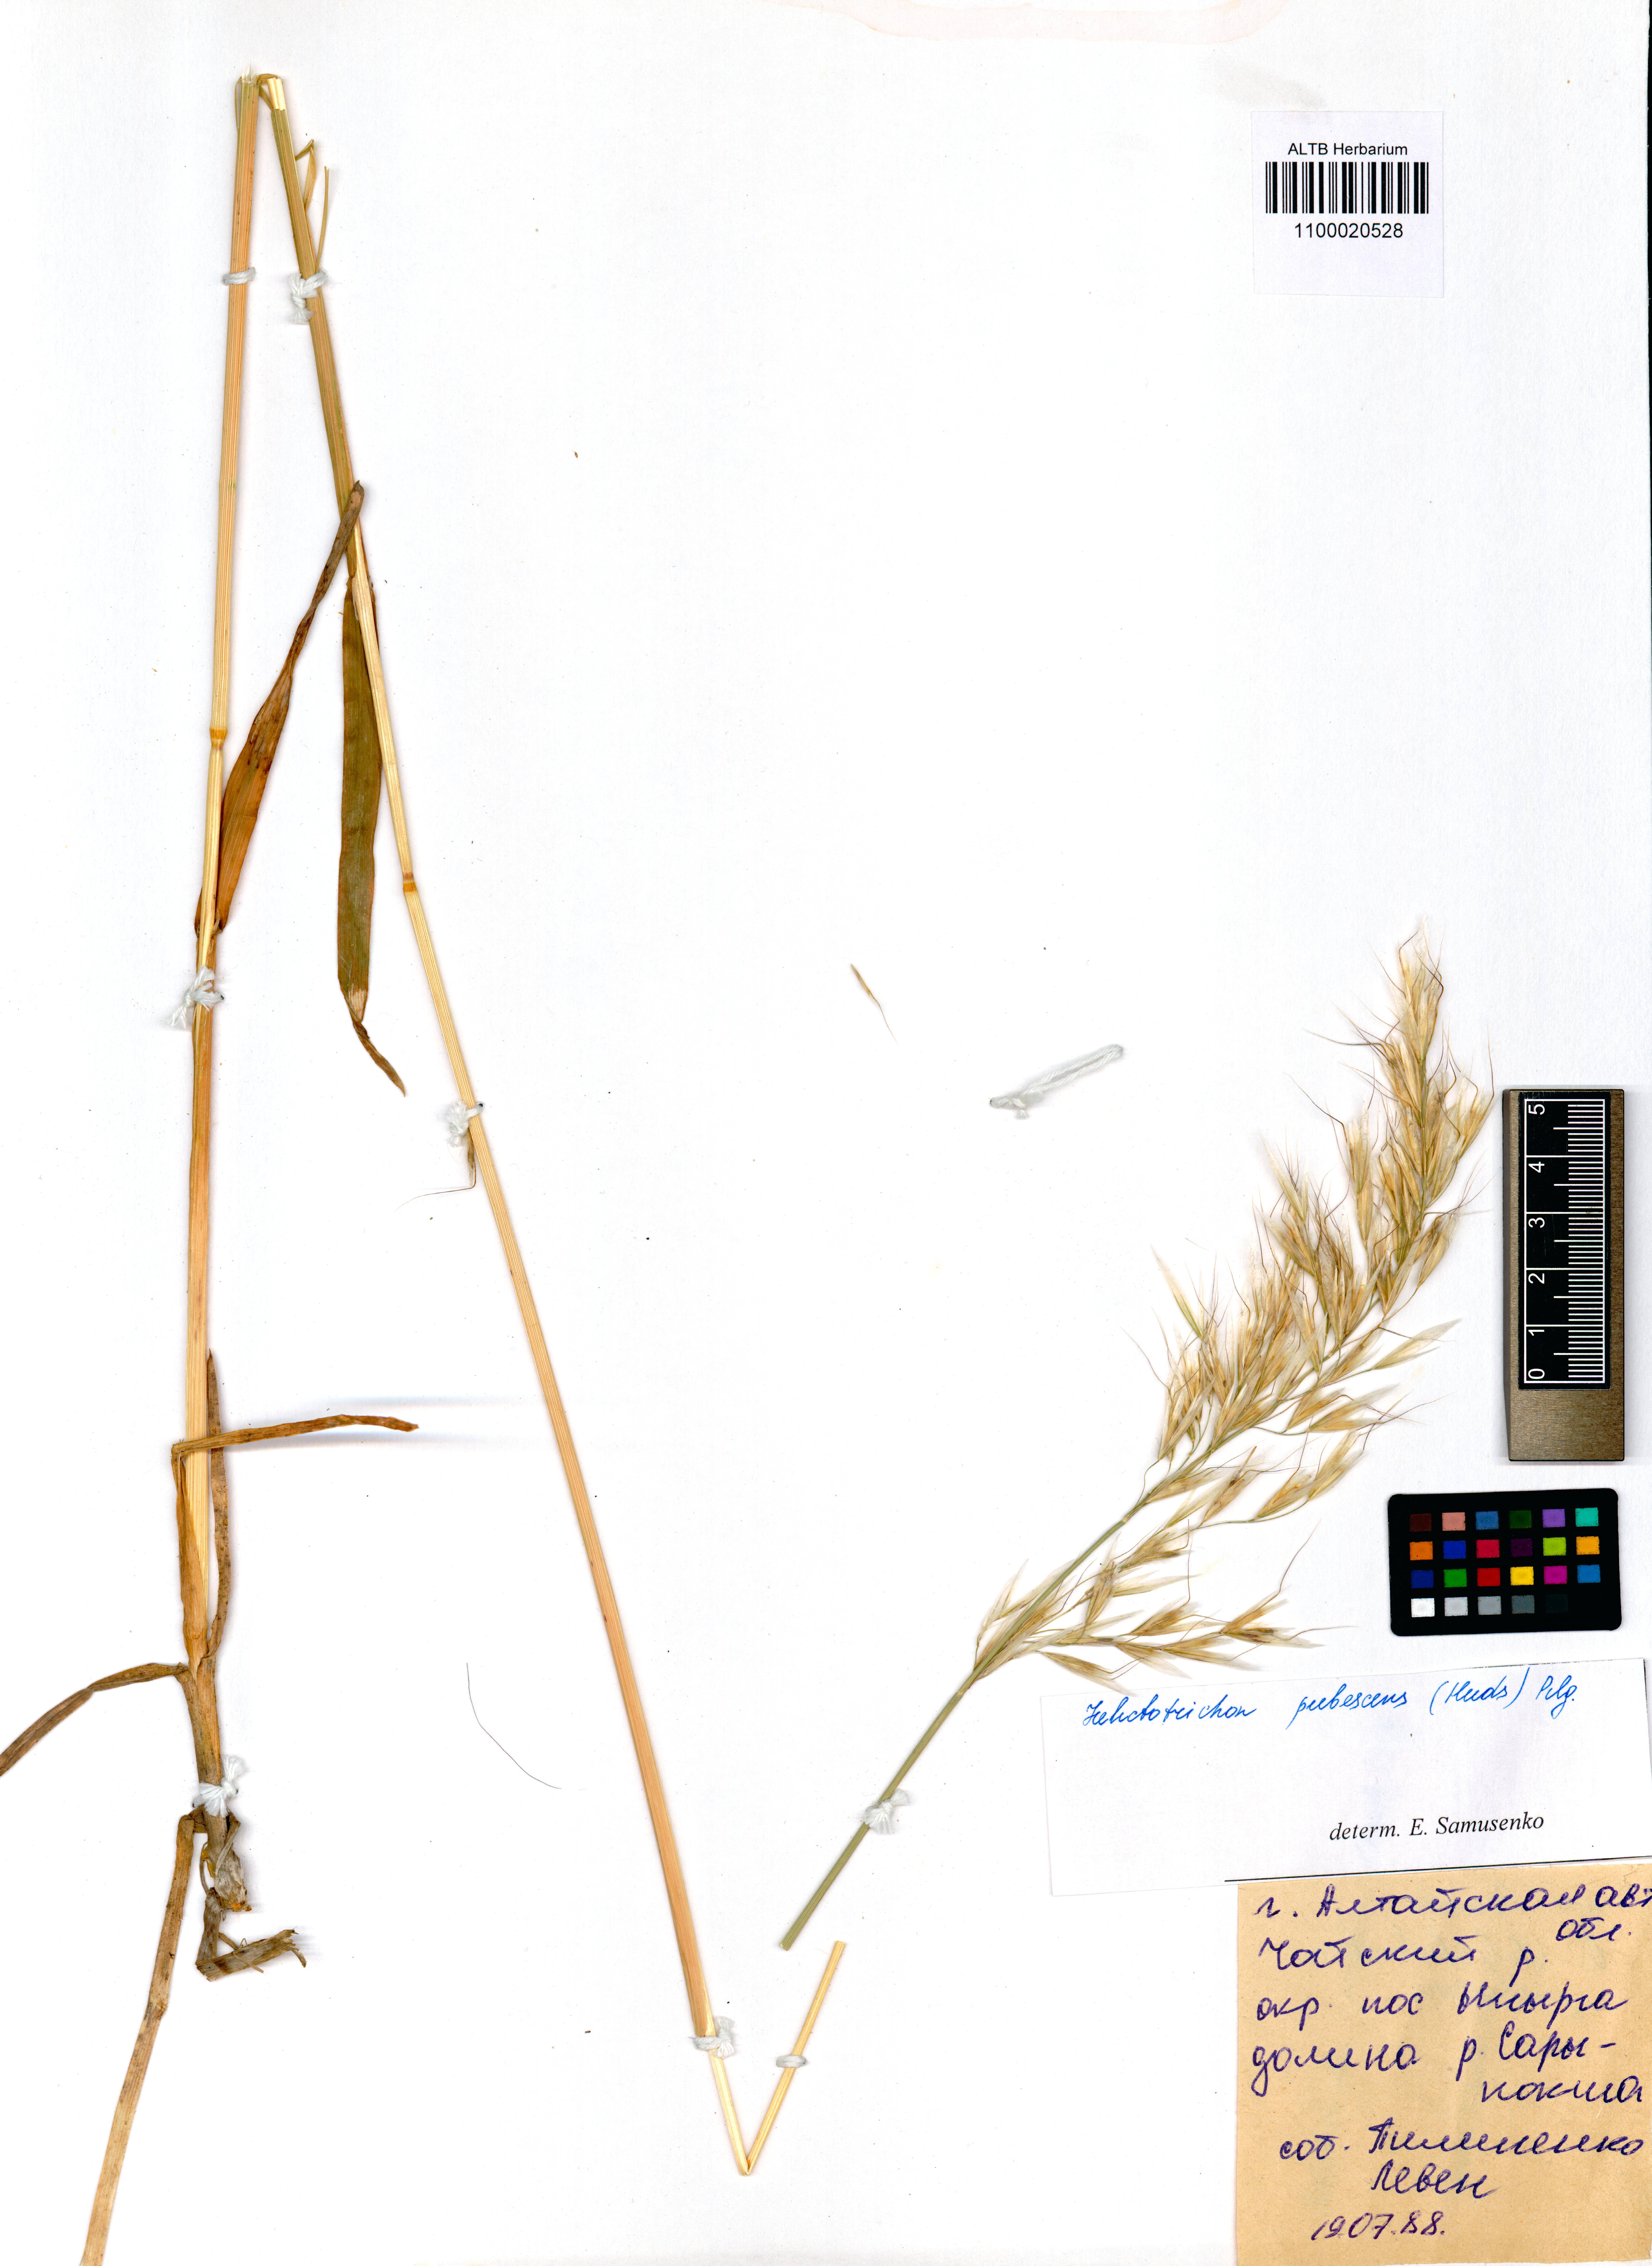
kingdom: Plantae
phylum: Tracheophyta
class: Liliopsida
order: Poales
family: Poaceae
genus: Avenula
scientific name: Avenula pubescens
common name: Downy alpine oatgrass
